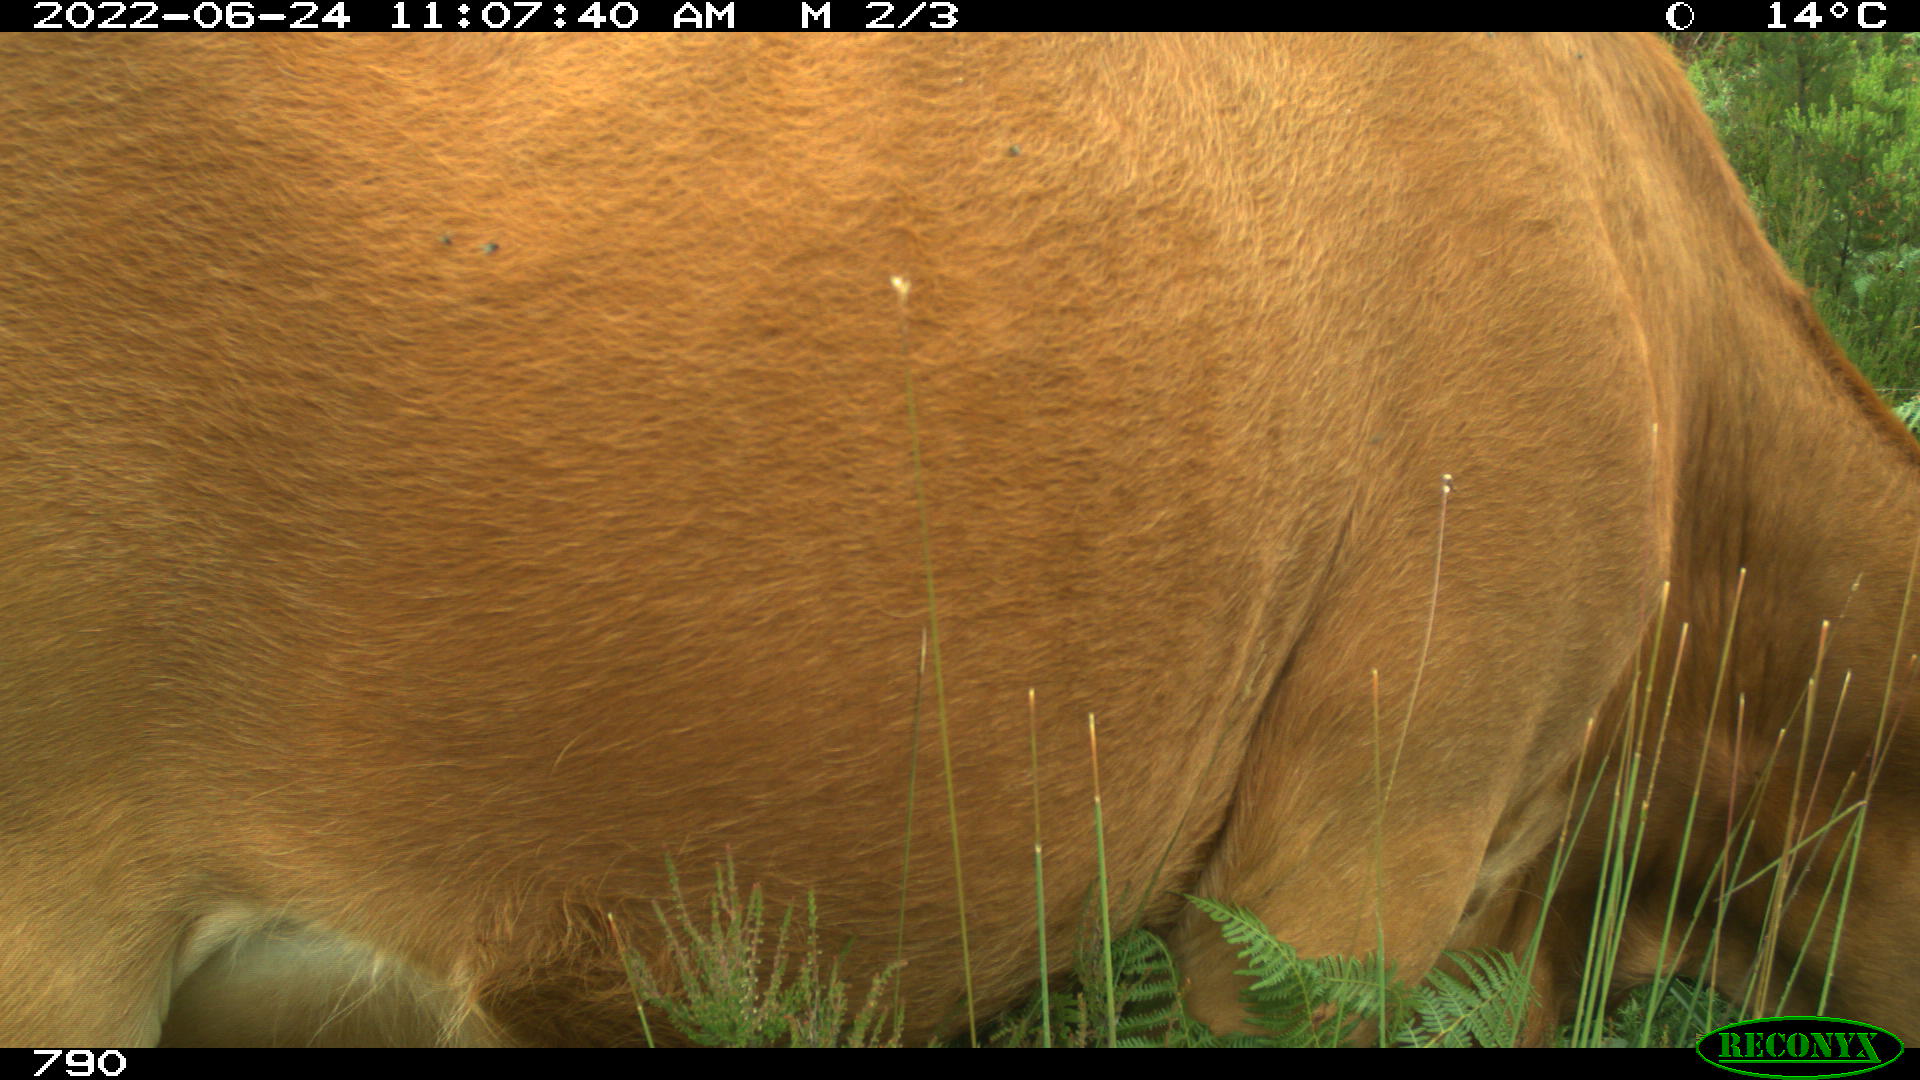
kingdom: Animalia
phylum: Chordata
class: Mammalia
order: Artiodactyla
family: Bovidae
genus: Bos
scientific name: Bos taurus
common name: Domesticated cattle
